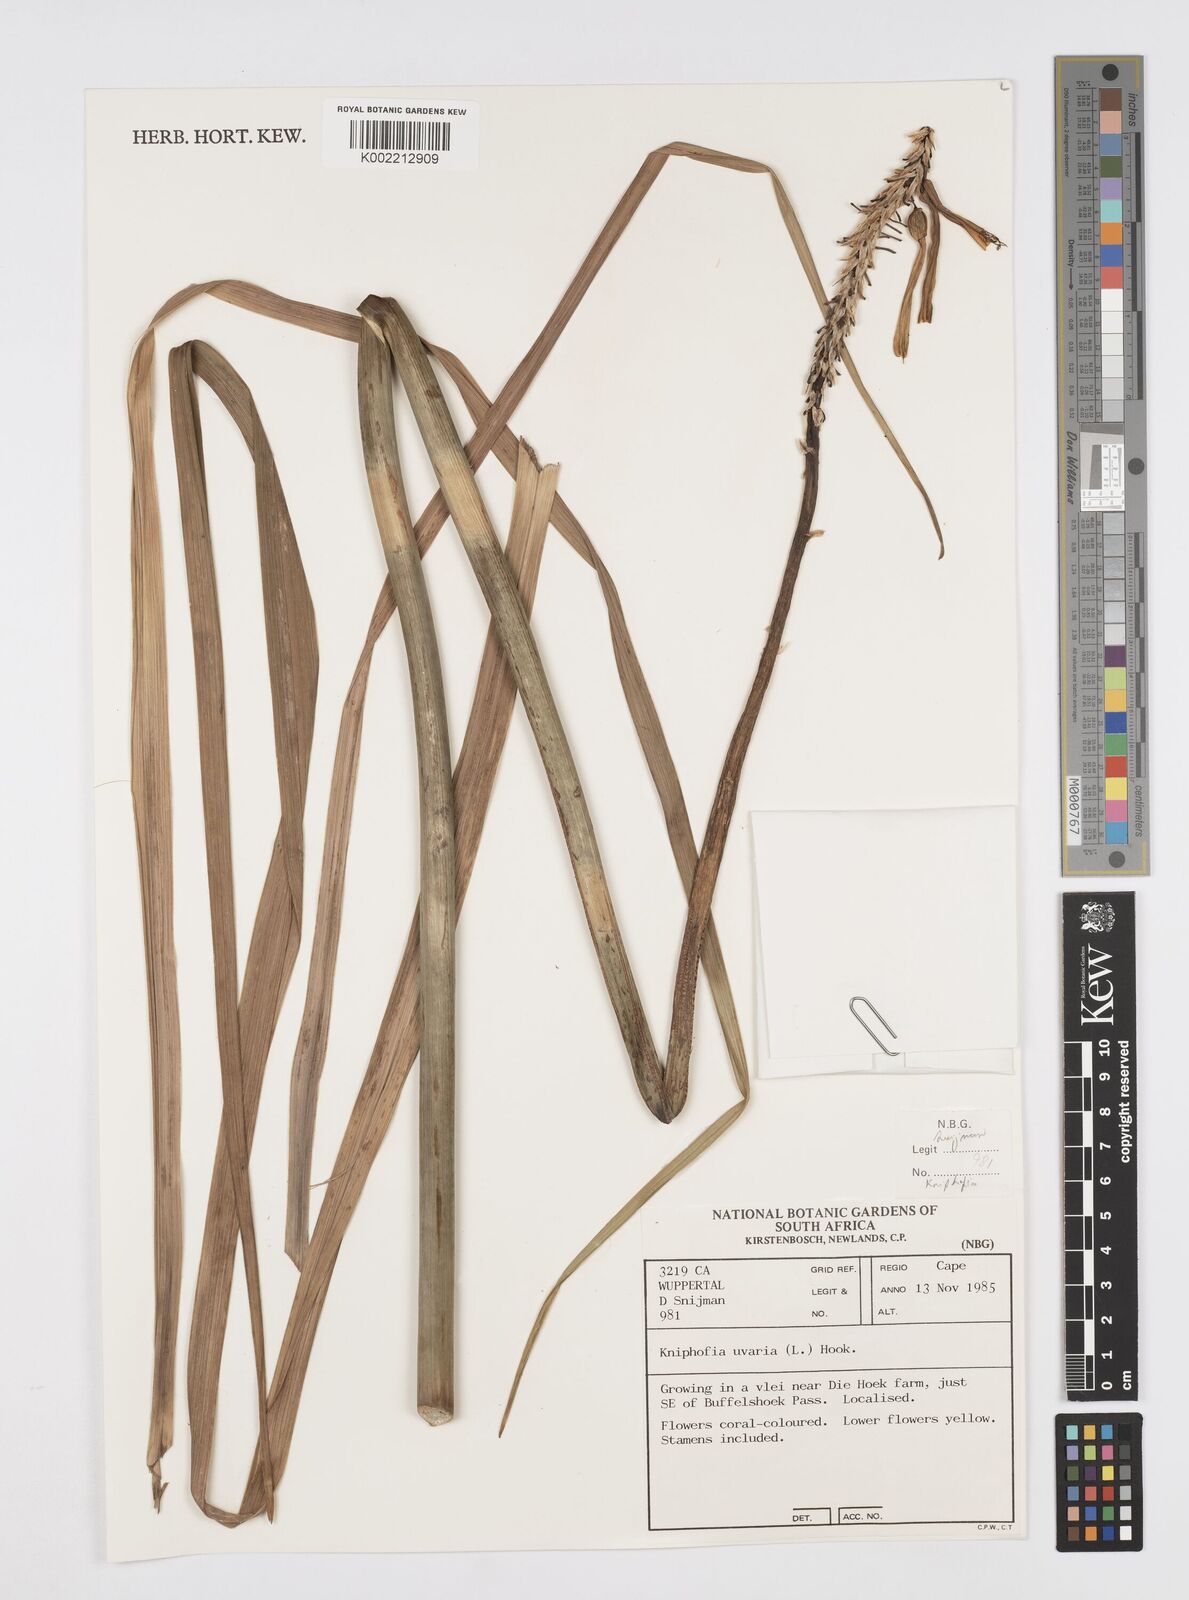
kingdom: Plantae
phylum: Tracheophyta
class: Liliopsida
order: Asparagales
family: Asphodelaceae
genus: Kniphofia
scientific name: Kniphofia uvaria
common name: Red-hot-poker
